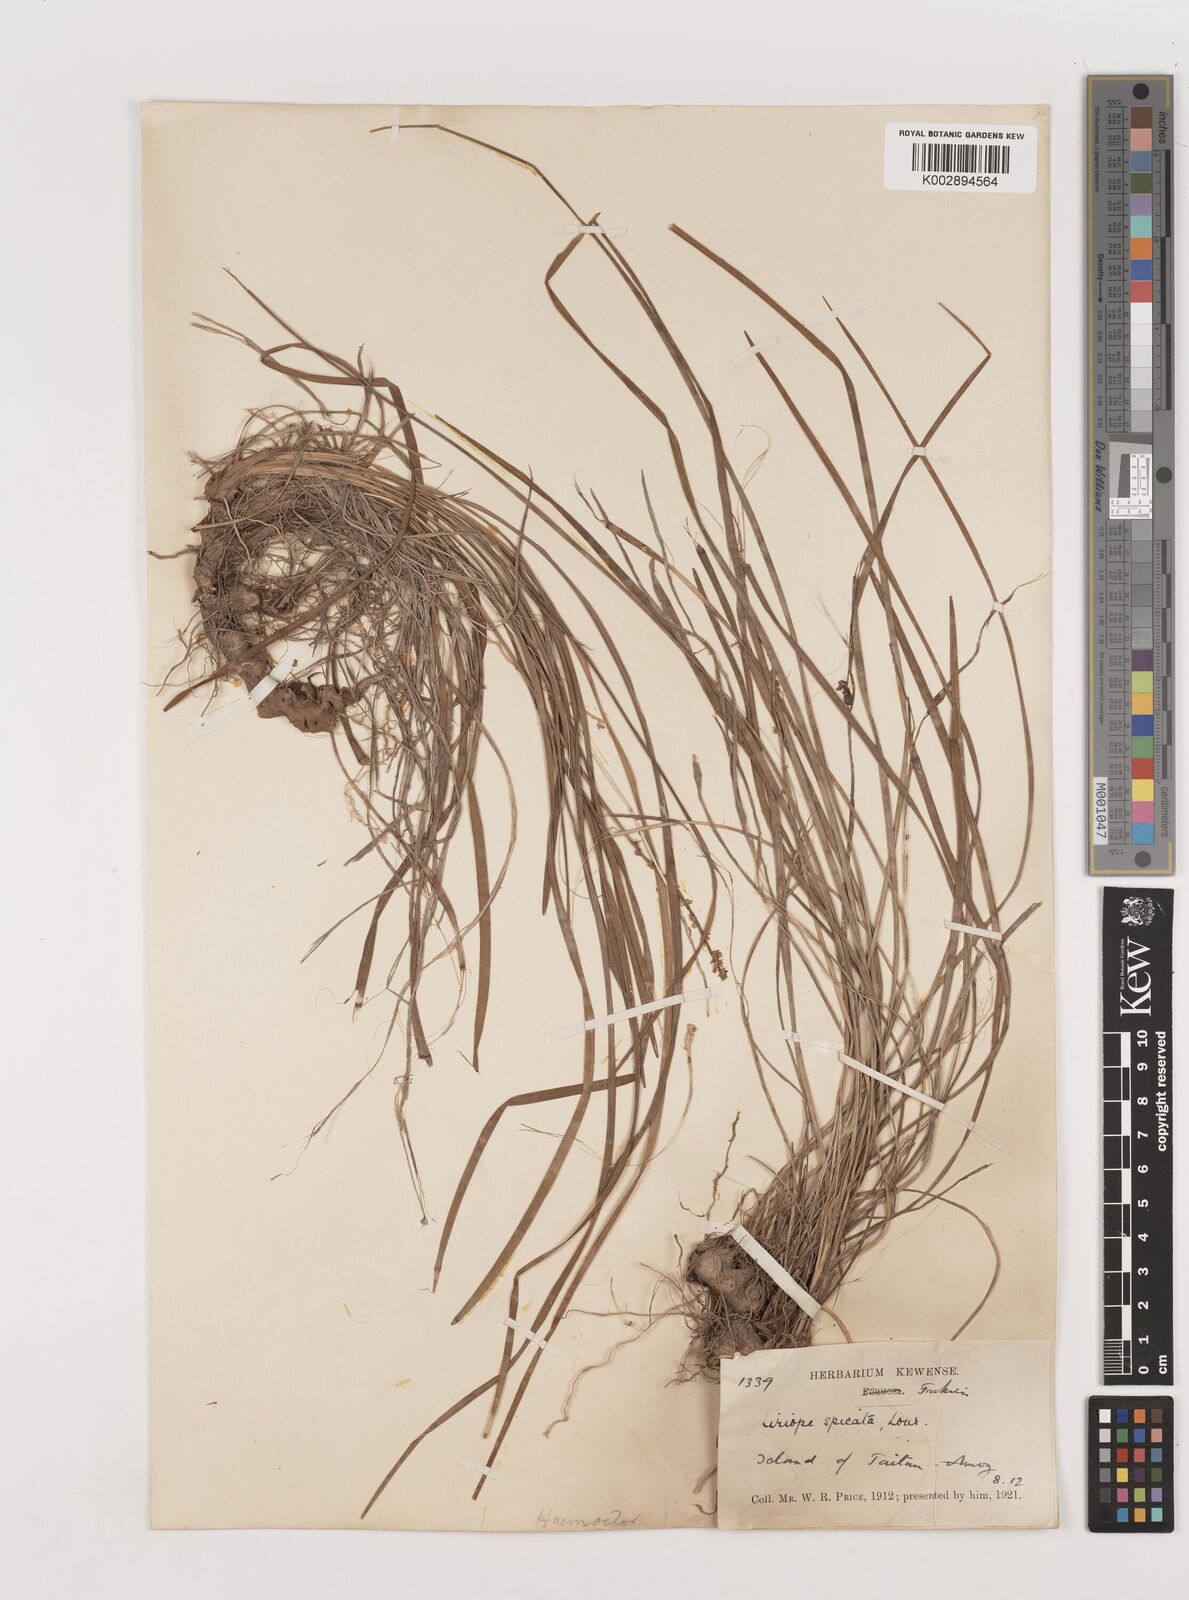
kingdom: Plantae
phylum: Tracheophyta
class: Liliopsida
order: Asparagales
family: Asparagaceae
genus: Liriope
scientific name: Liriope spicata
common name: Creeping liriope
